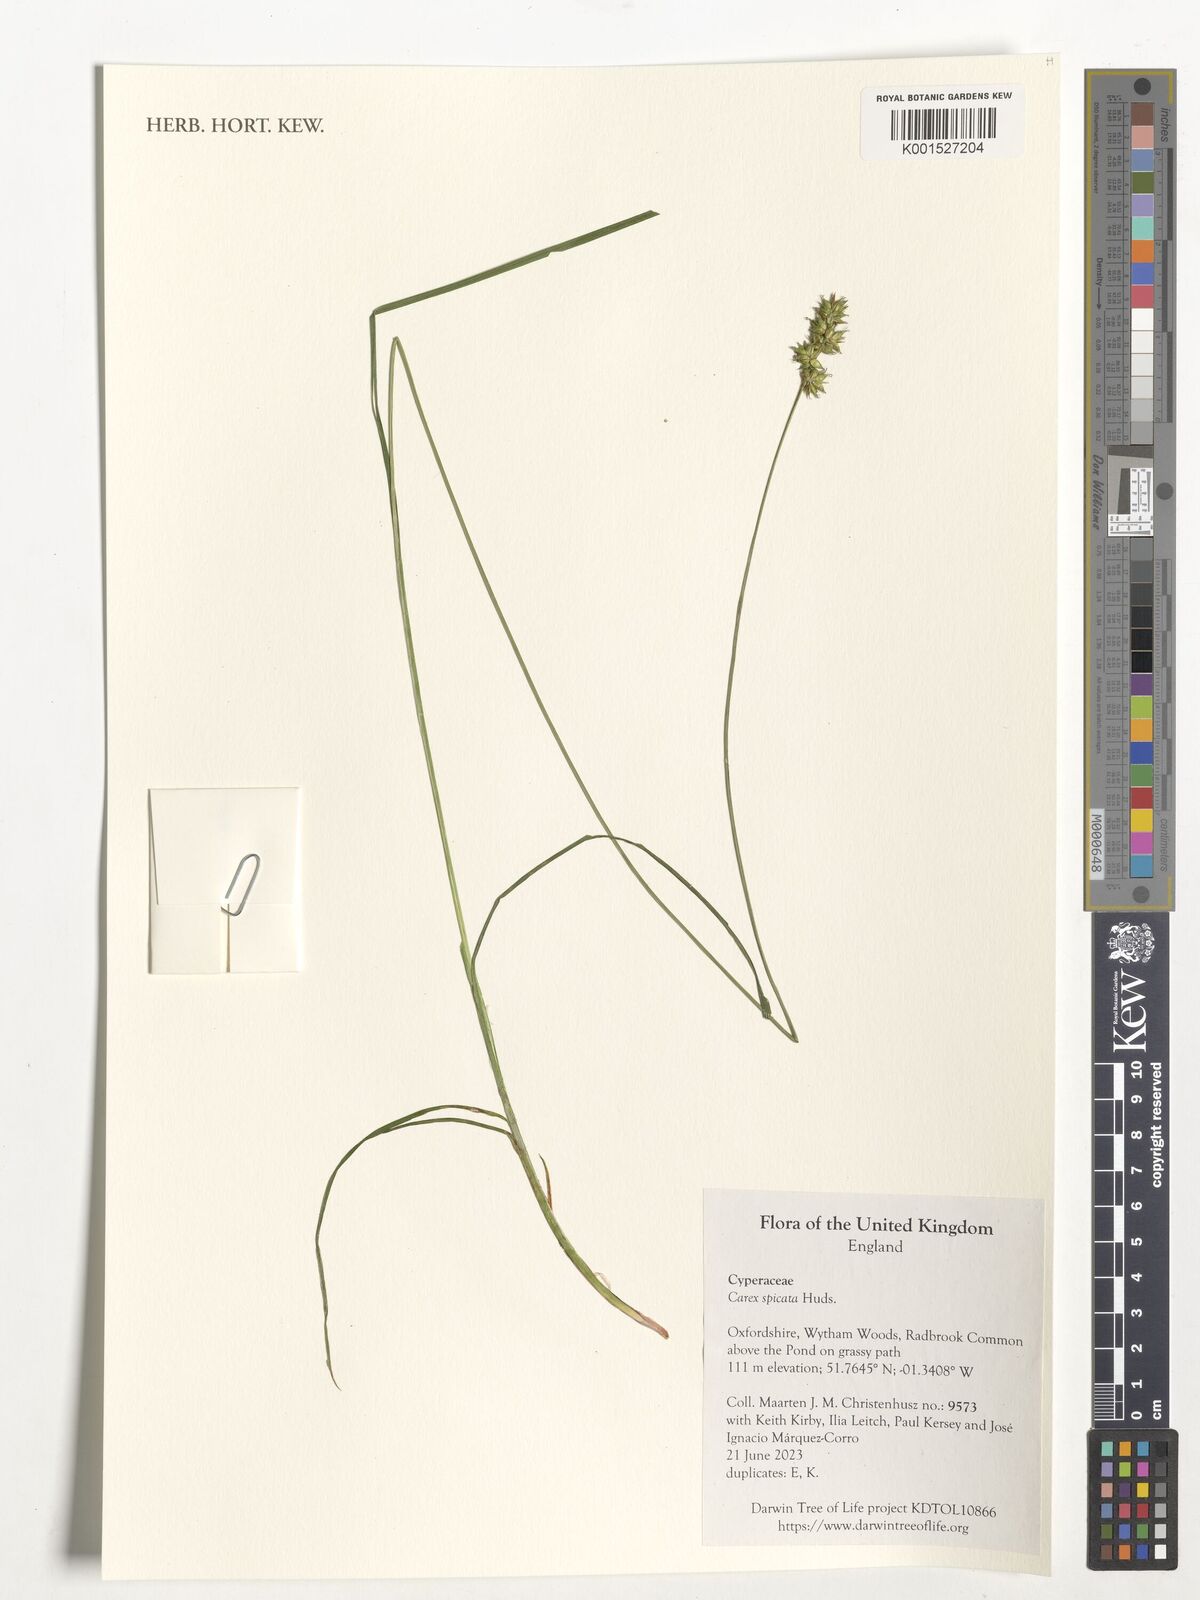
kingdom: Plantae
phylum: Tracheophyta
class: Liliopsida
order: Poales
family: Cyperaceae
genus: Carex
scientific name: Carex spicata
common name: Spiked sedge
